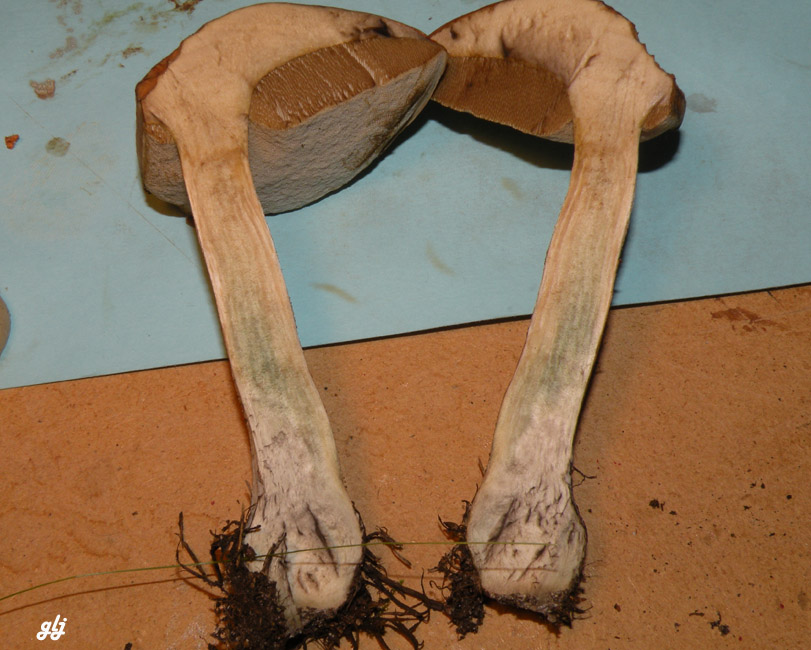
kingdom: Fungi
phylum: Basidiomycota
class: Agaricomycetes
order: Boletales
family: Boletaceae
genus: Leccinum
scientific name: Leccinum
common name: skælrørhat
